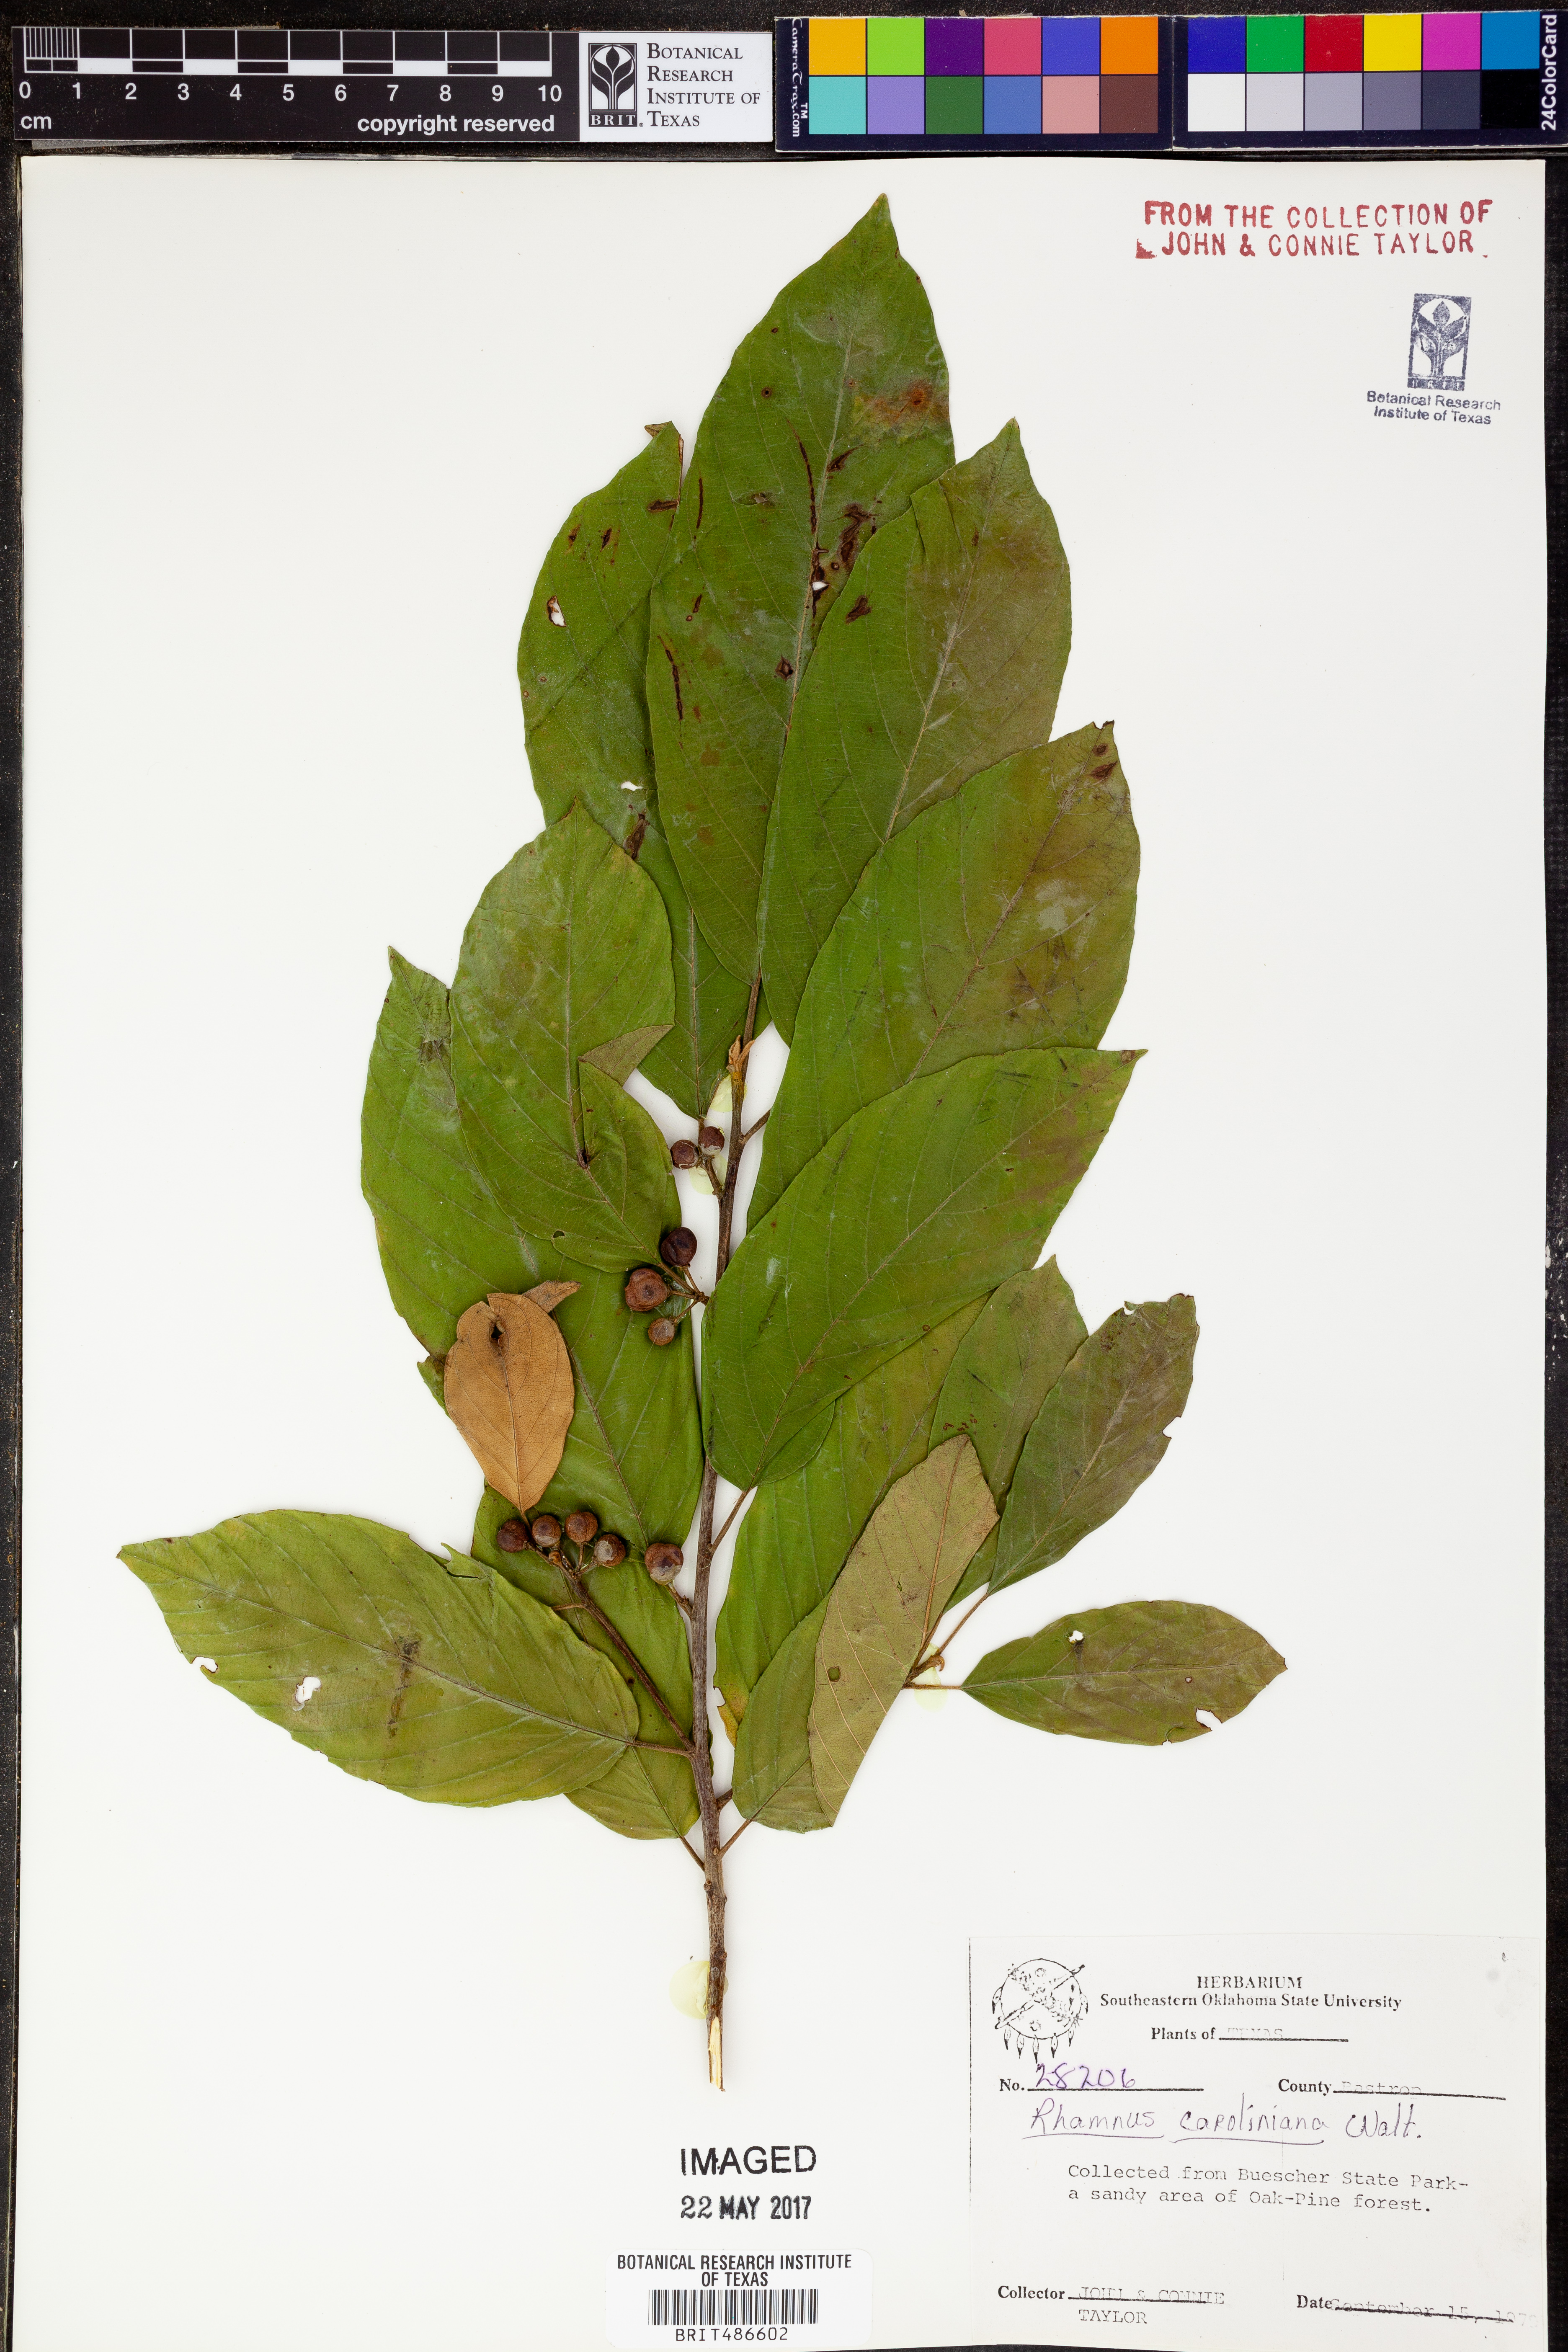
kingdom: Plantae
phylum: Tracheophyta
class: Magnoliopsida
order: Rosales
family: Rhamnaceae
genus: Frangula
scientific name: Frangula caroliniana
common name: Carolina buckthorn
